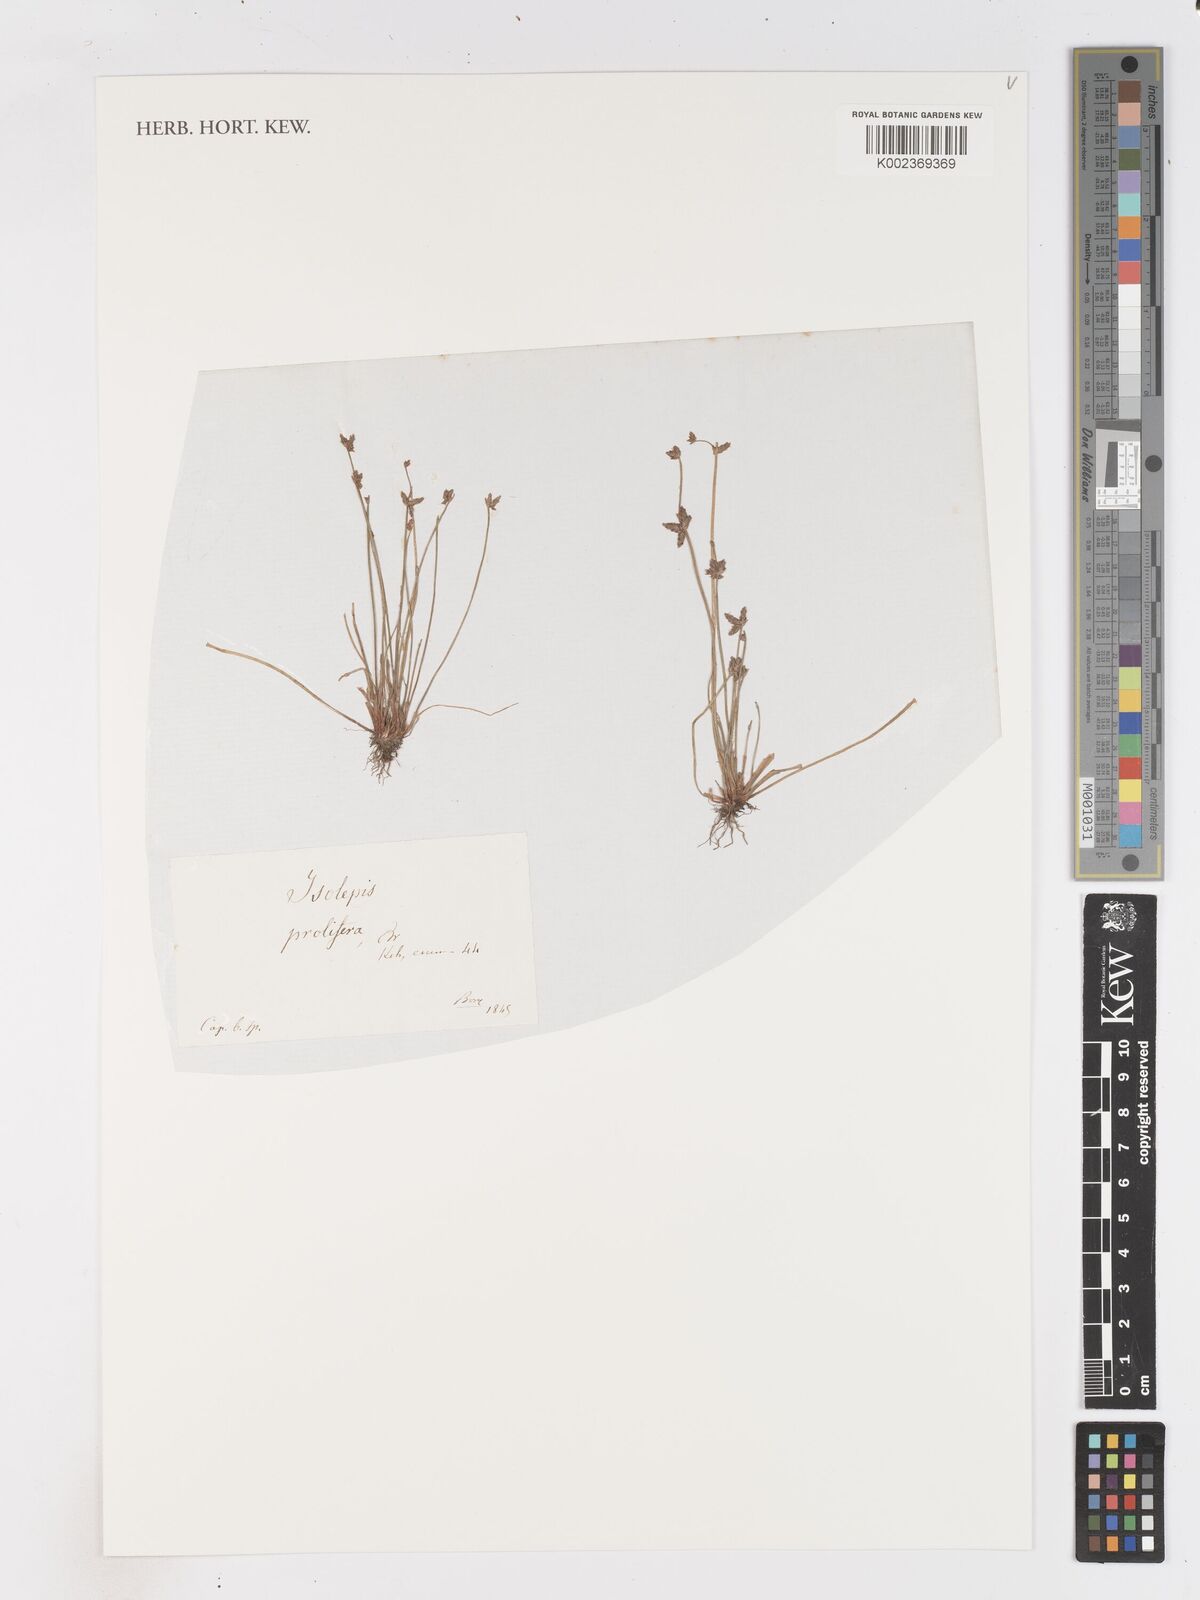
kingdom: Plantae
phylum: Tracheophyta
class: Liliopsida
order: Poales
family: Cyperaceae
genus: Isolepis
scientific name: Isolepis prolifera
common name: Proliferating bulrush
